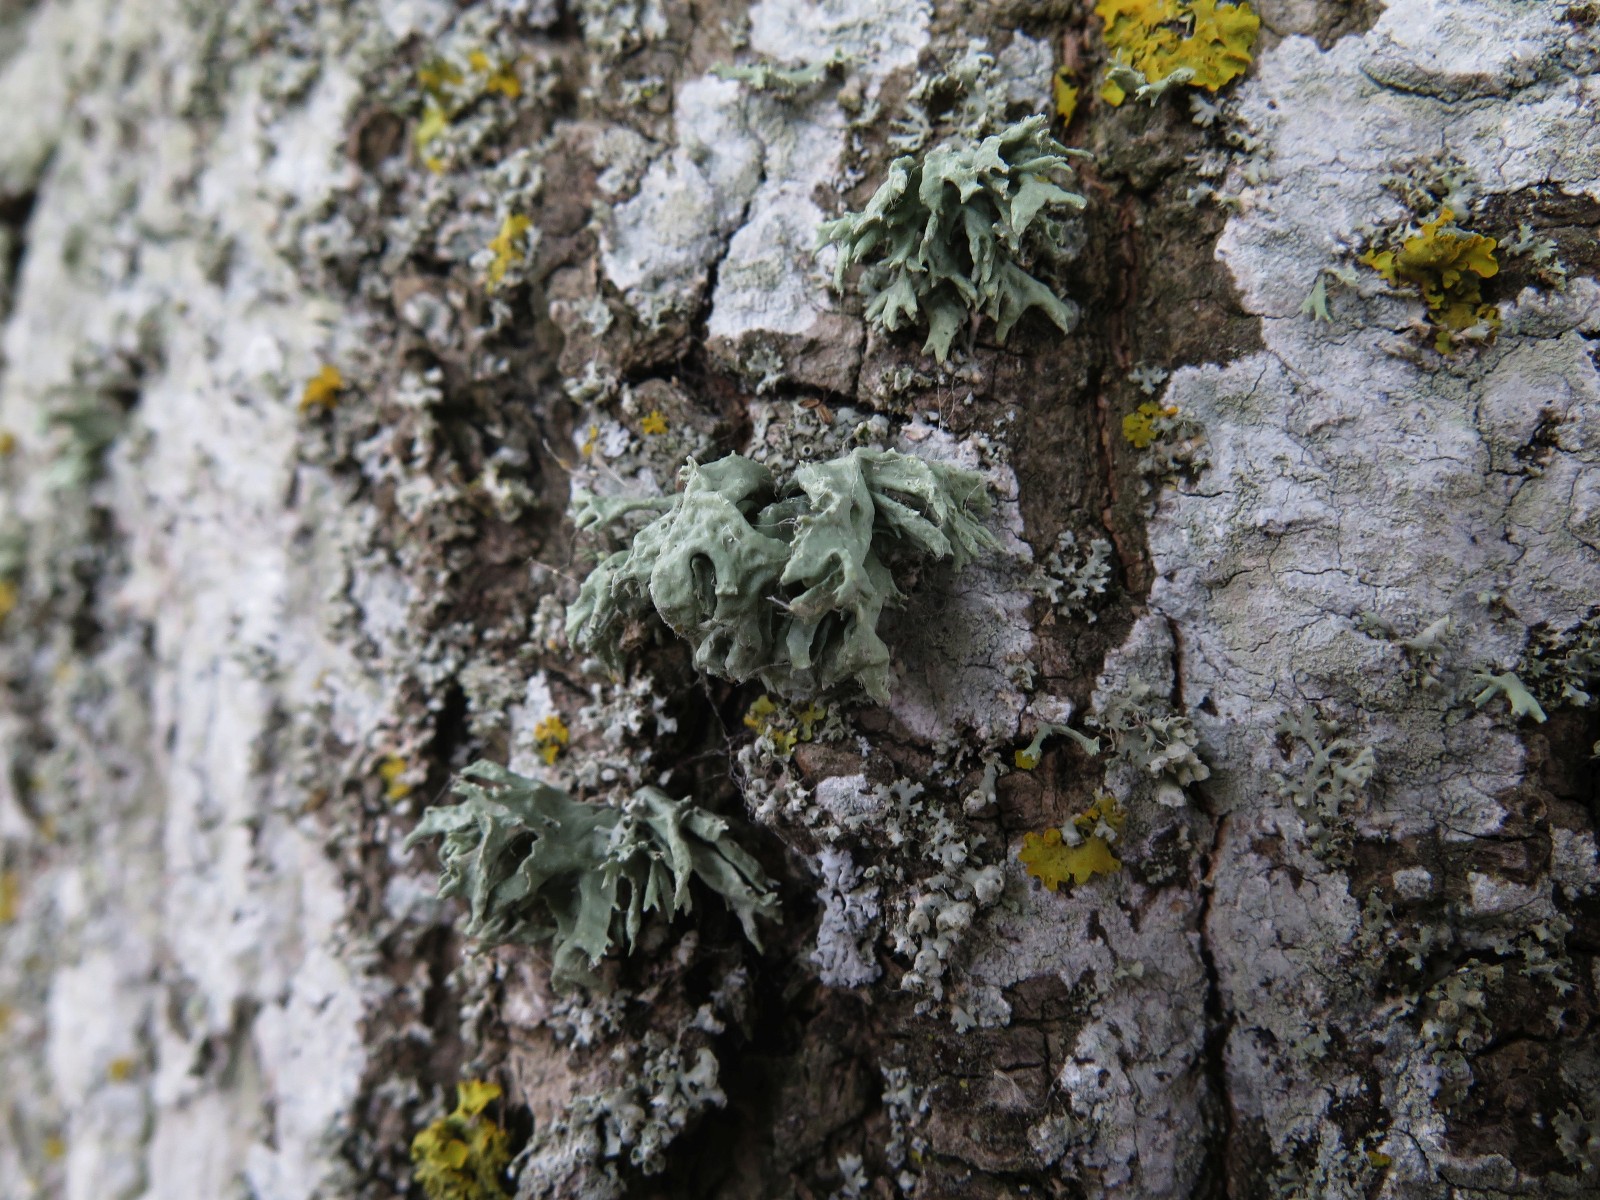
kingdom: Fungi
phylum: Ascomycota
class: Lecanoromycetes
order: Lecanorales
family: Parmeliaceae
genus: Evernia
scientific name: Evernia prunastri
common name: almindelig slåenlav
